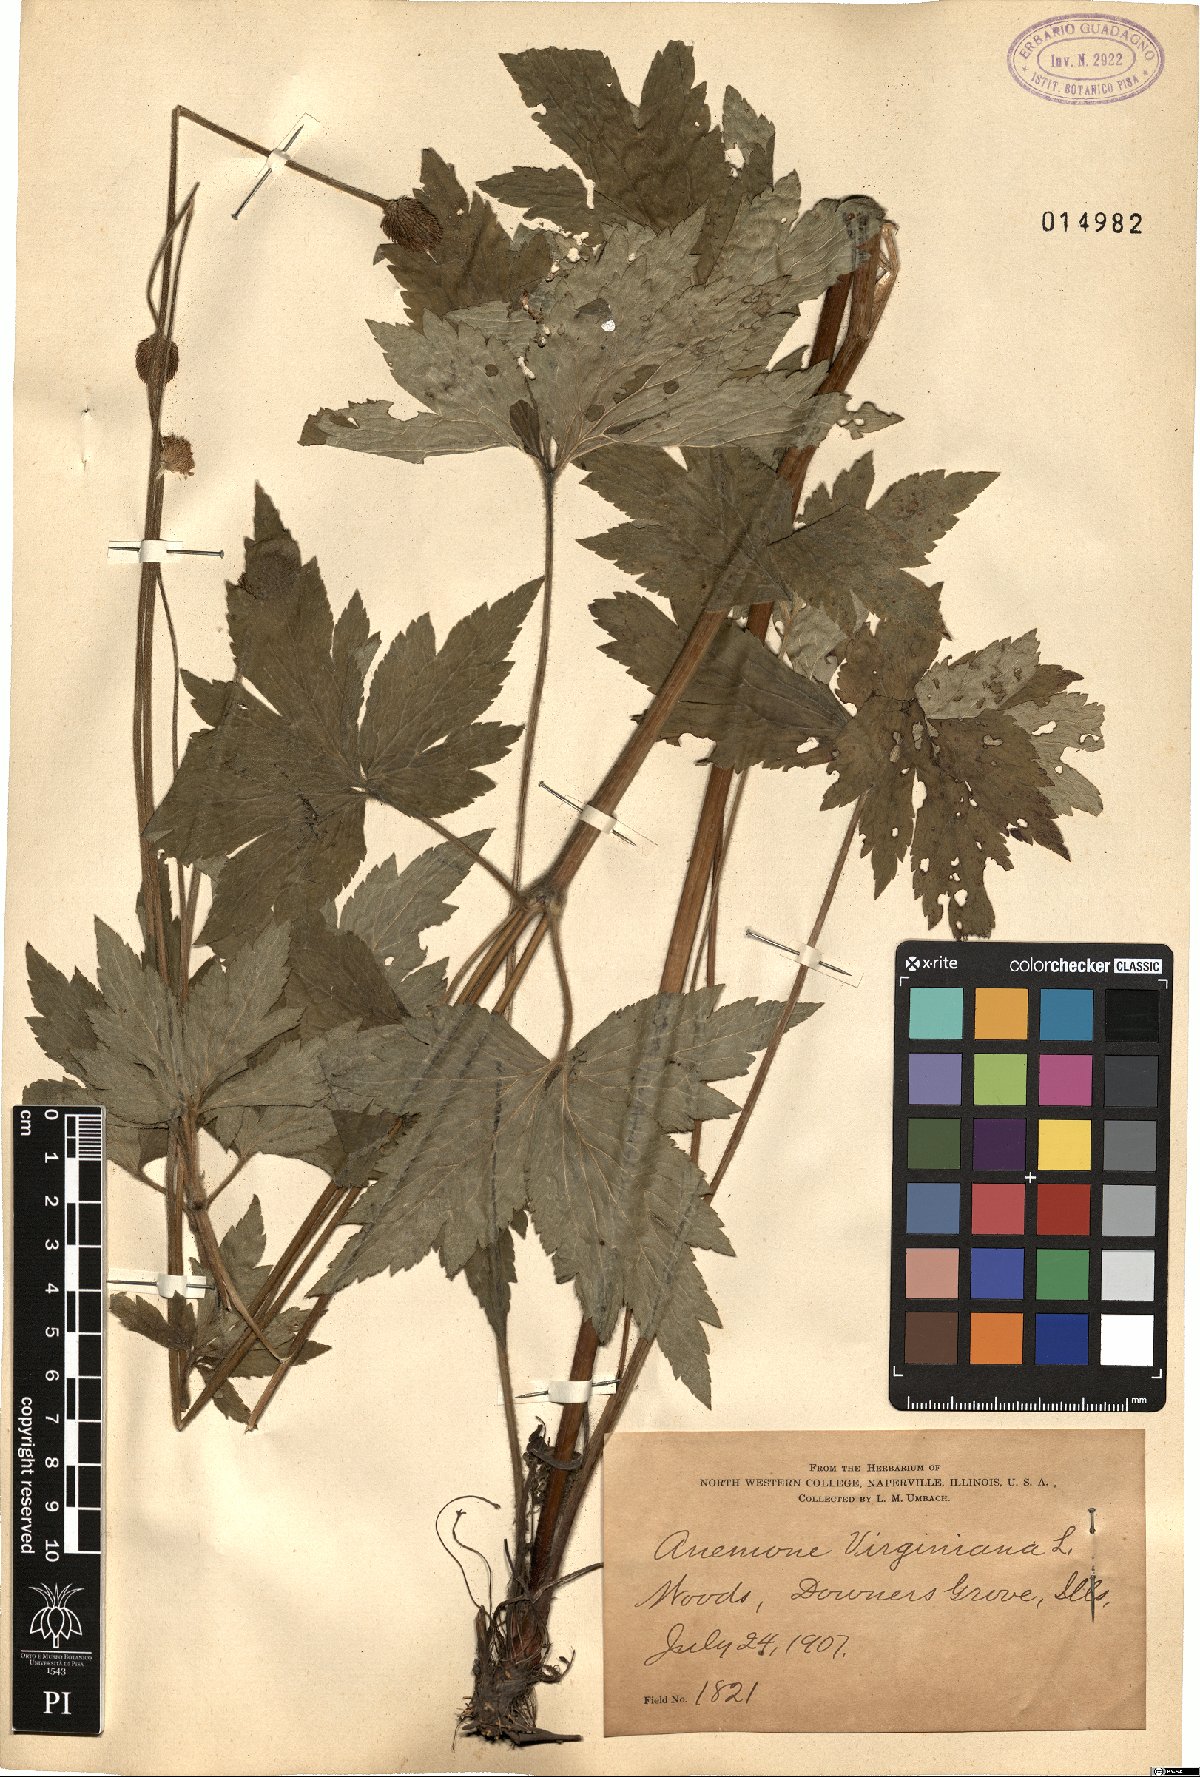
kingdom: Plantae
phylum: Tracheophyta
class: Magnoliopsida
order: Ranunculales
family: Ranunculaceae
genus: Anemone
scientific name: Anemone virginiana
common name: Tall anemone
